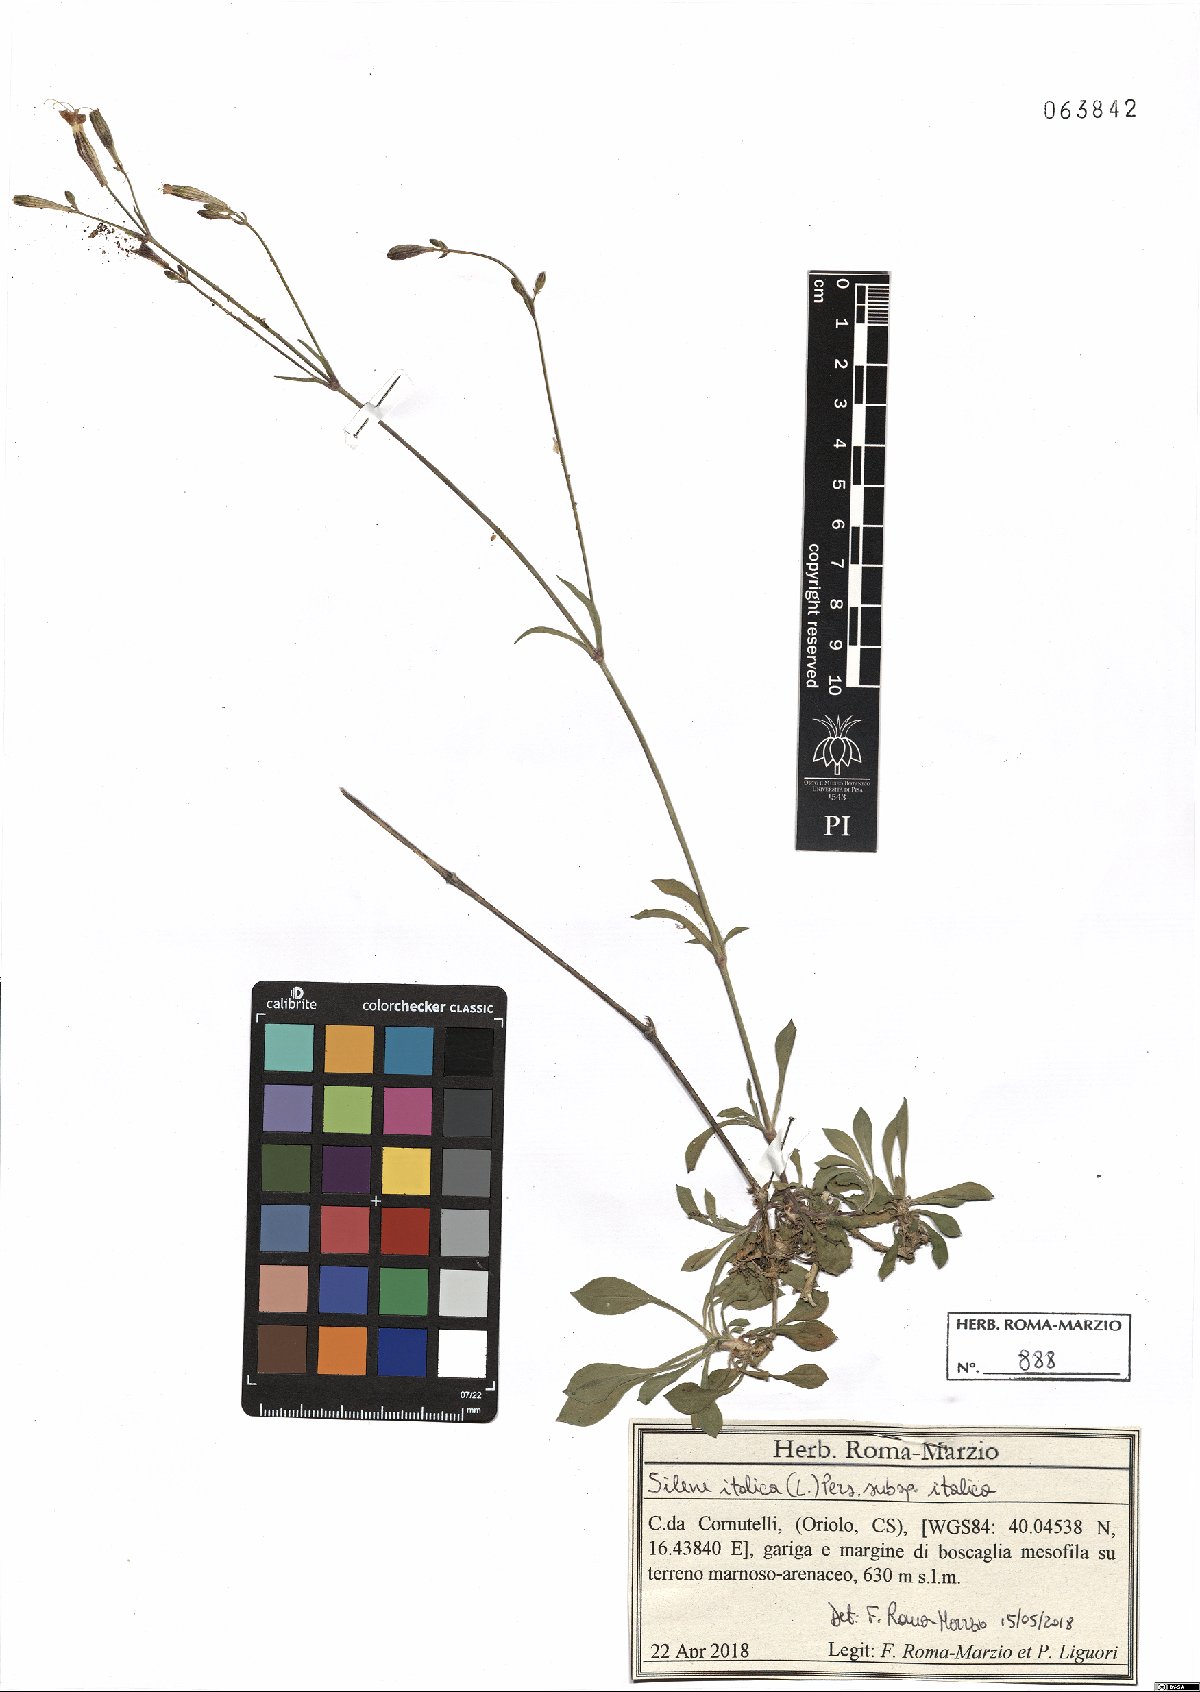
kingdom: Plantae
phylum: Tracheophyta
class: Magnoliopsida
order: Caryophyllales
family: Caryophyllaceae
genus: Silene
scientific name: Silene italica
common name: Italian catchfly
